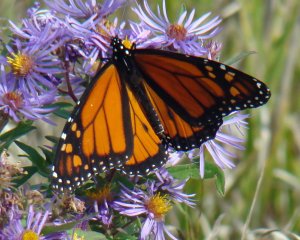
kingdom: Animalia
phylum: Arthropoda
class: Insecta
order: Lepidoptera
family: Nymphalidae
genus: Danaus
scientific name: Danaus plexippus
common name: Monarch
